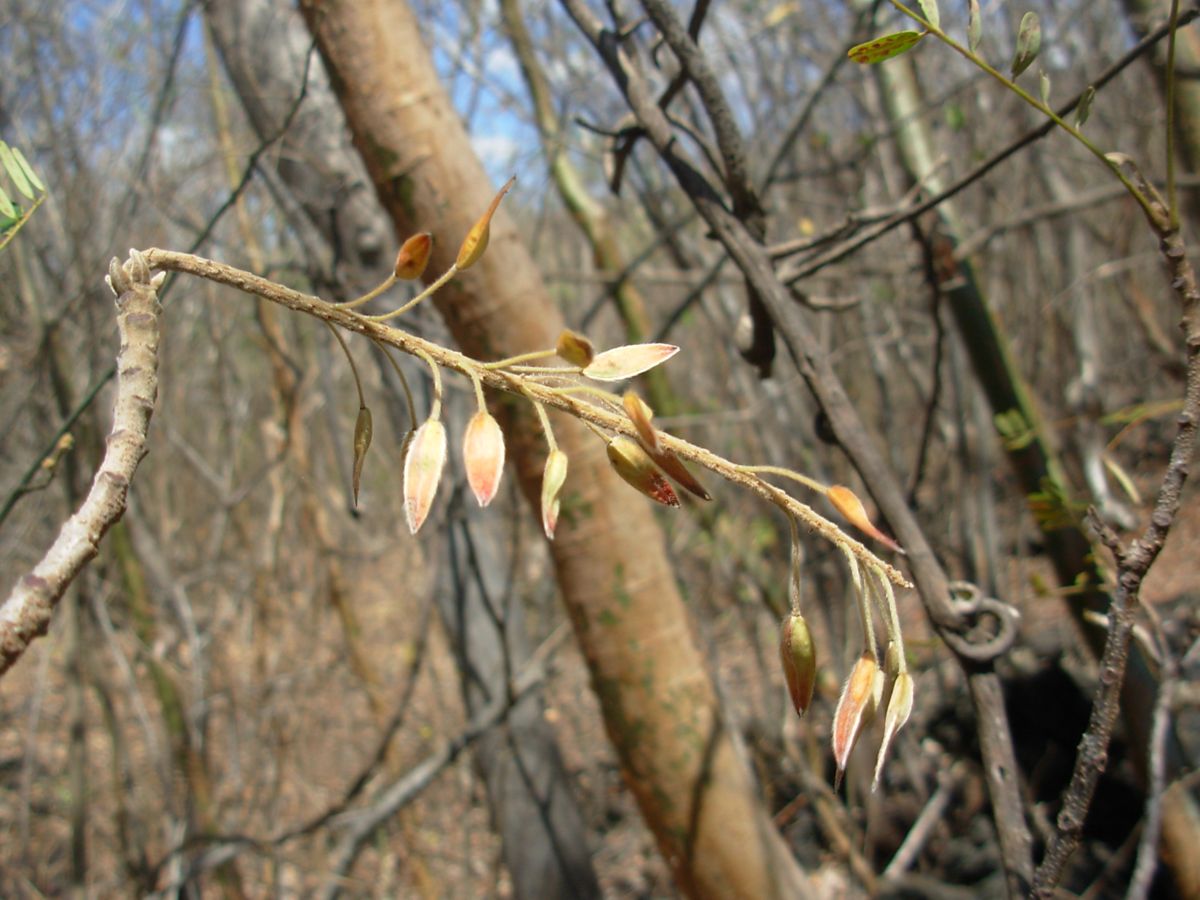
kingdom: Plantae
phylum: Tracheophyta
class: Magnoliopsida
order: Picramniales
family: Picramniaceae
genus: Alvaradoa
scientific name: Alvaradoa amorphoides
